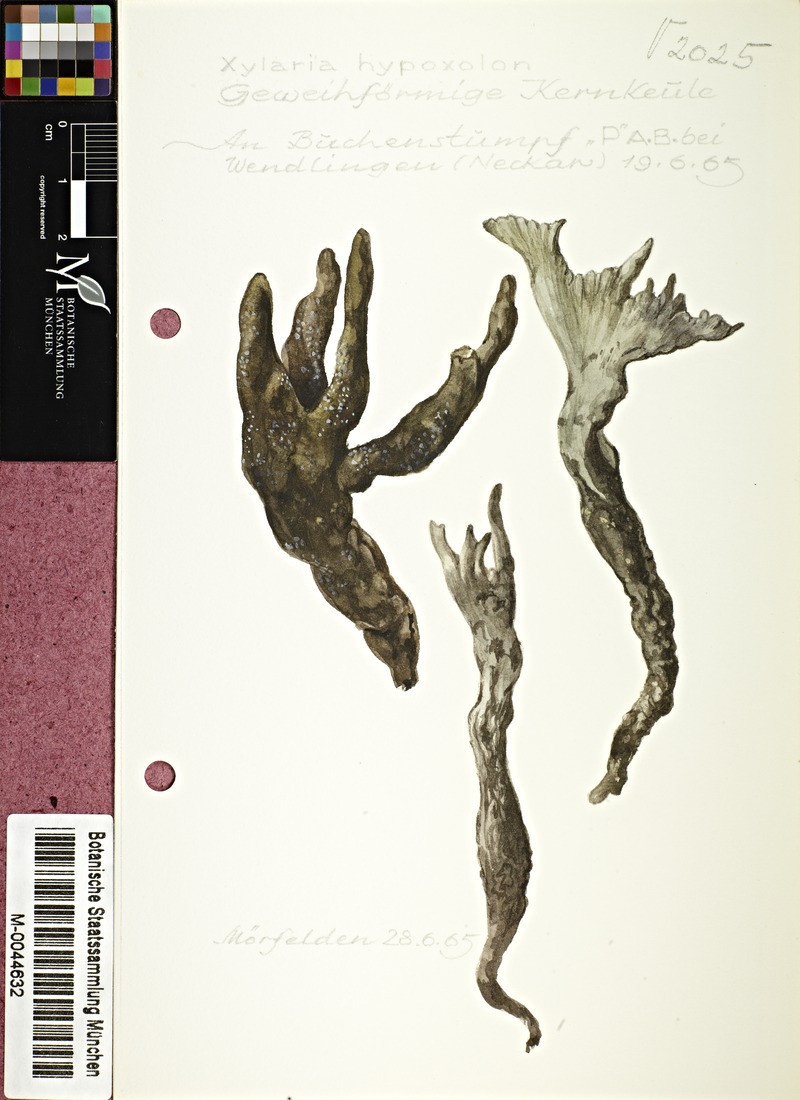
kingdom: Fungi
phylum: Ascomycota
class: Sordariomycetes
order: Xylariales
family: Xylariaceae
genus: Xylaria
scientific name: Xylaria hypoxylon
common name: Candle-snuff fungus
